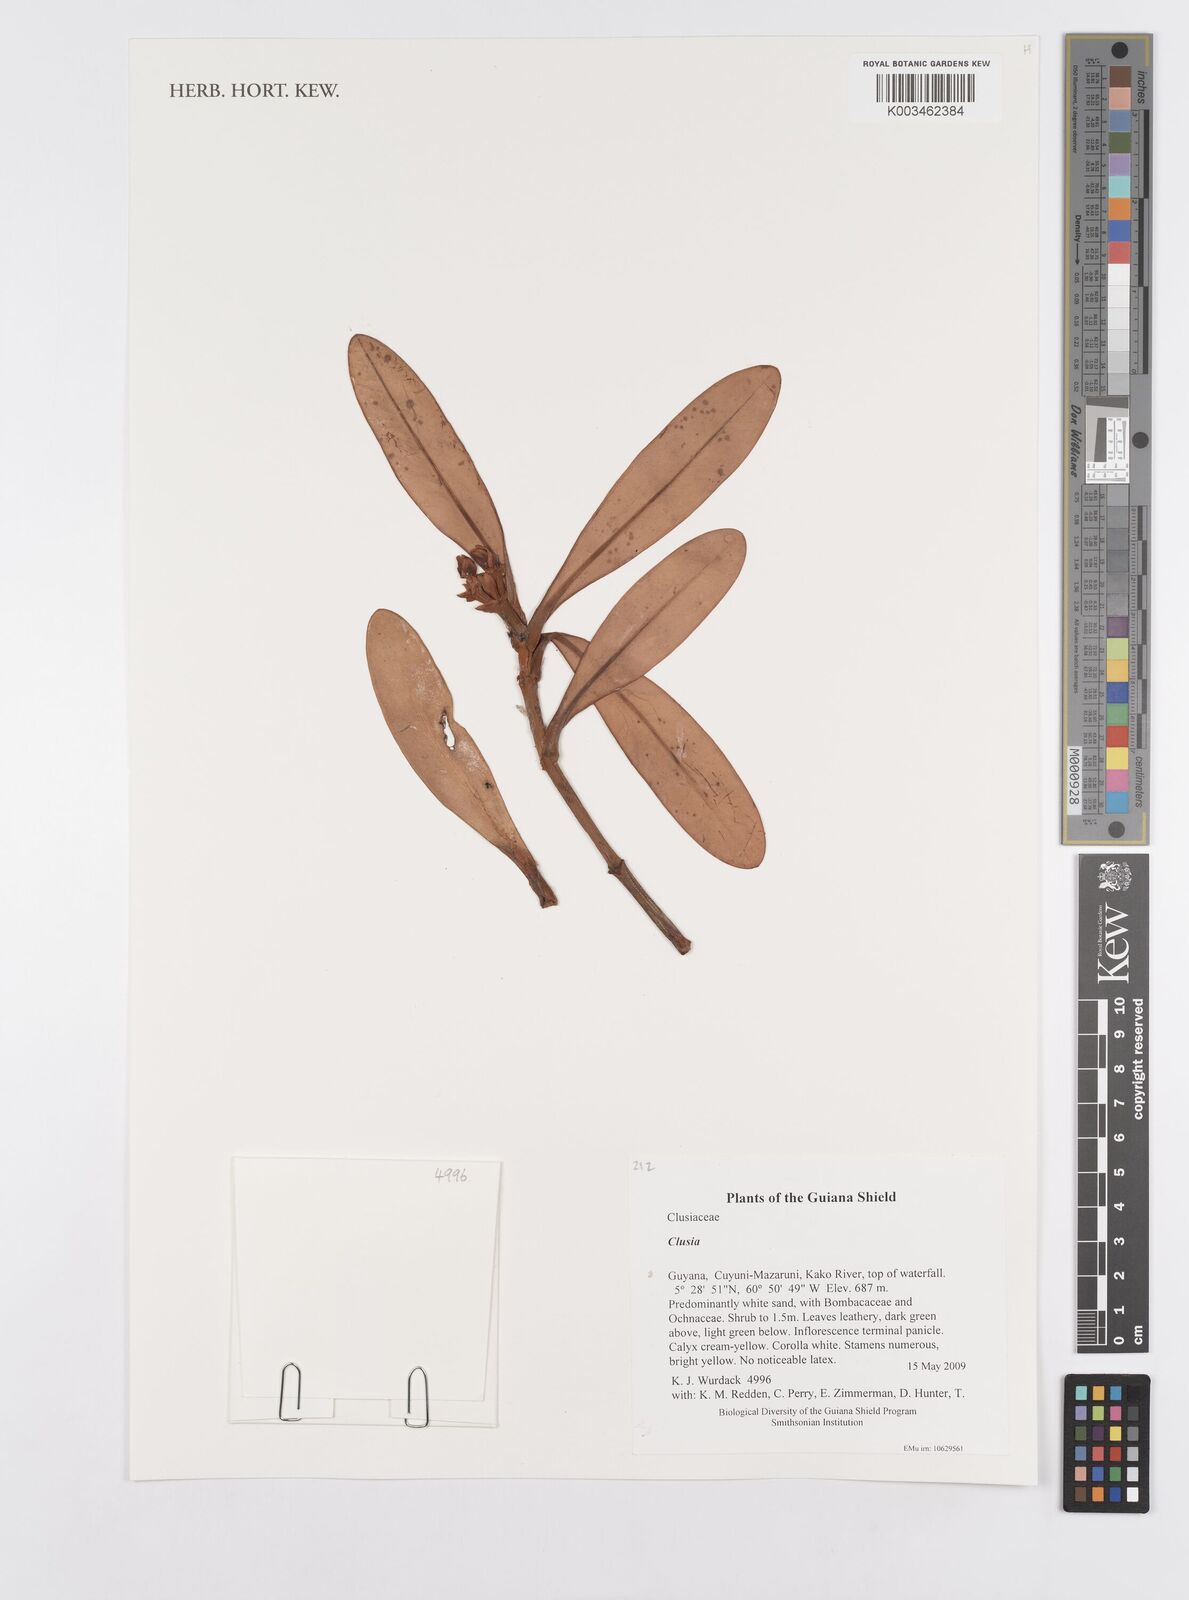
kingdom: Plantae
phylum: Tracheophyta
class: Magnoliopsida
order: Malpighiales
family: Clusiaceae
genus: Clusia
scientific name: Clusia
